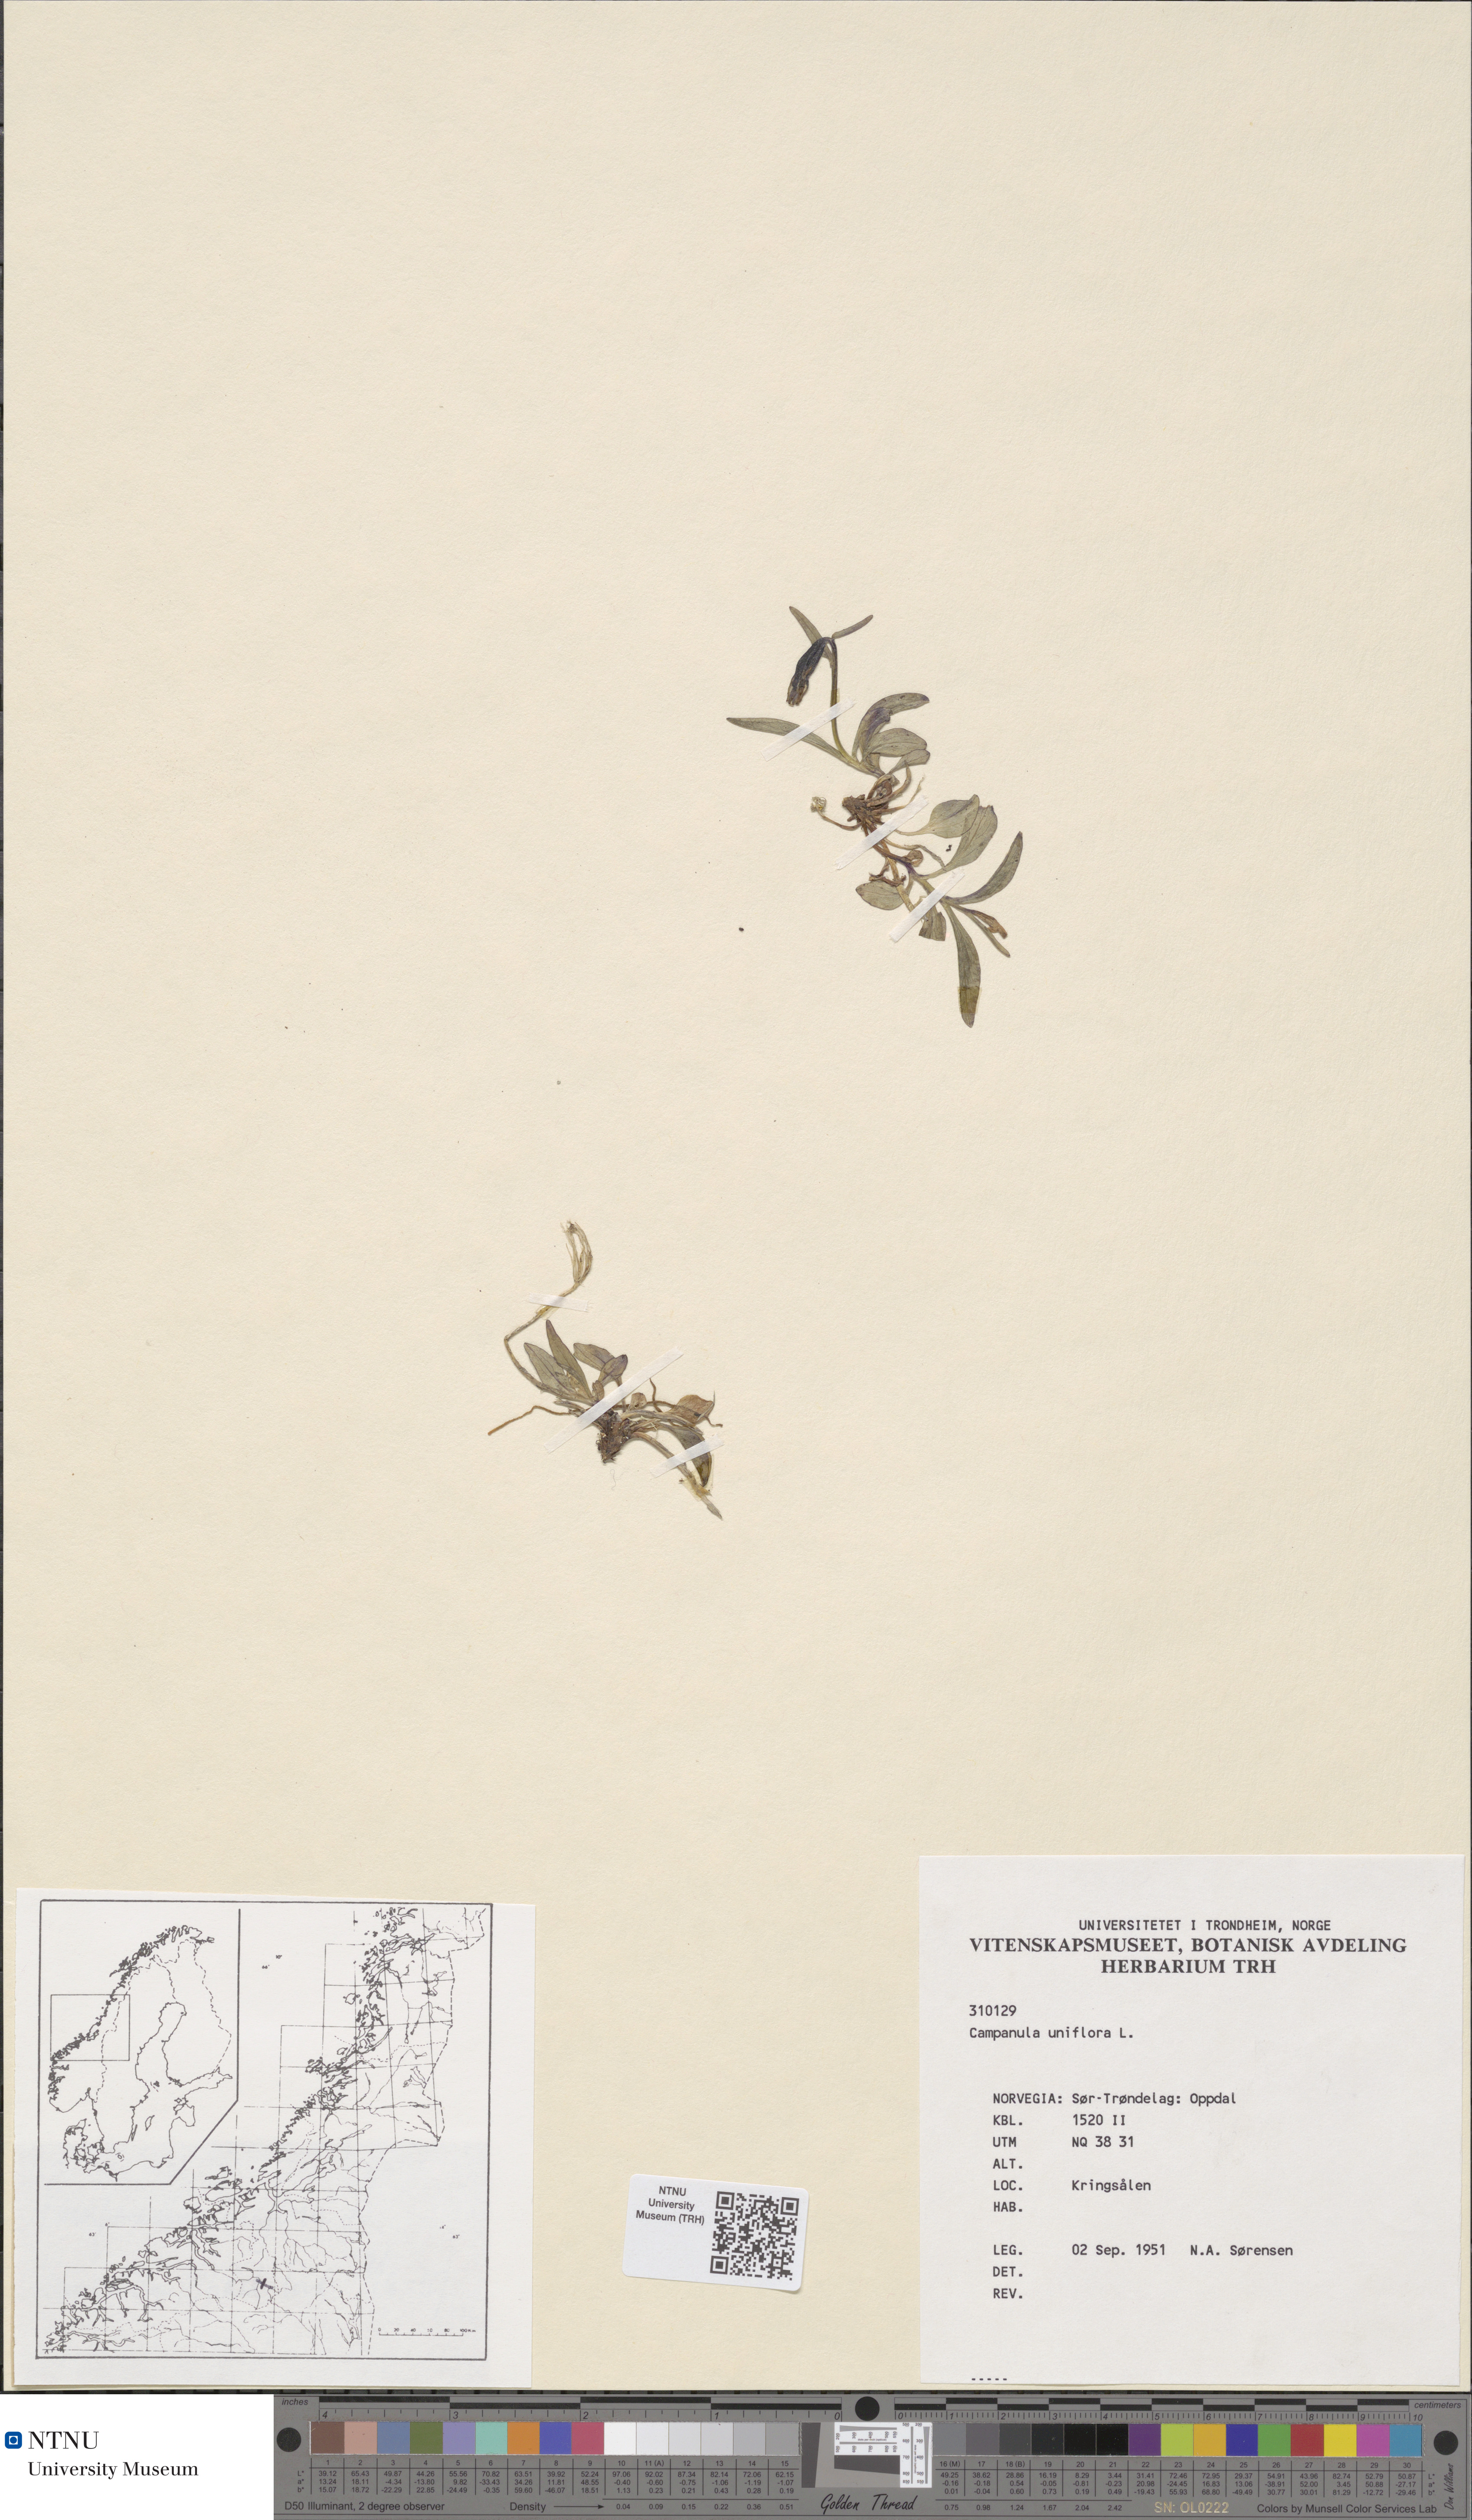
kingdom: Plantae
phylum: Tracheophyta
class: Magnoliopsida
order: Asterales
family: Campanulaceae
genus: Melanocalyx
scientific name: Melanocalyx uniflora
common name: Alpine harebell
